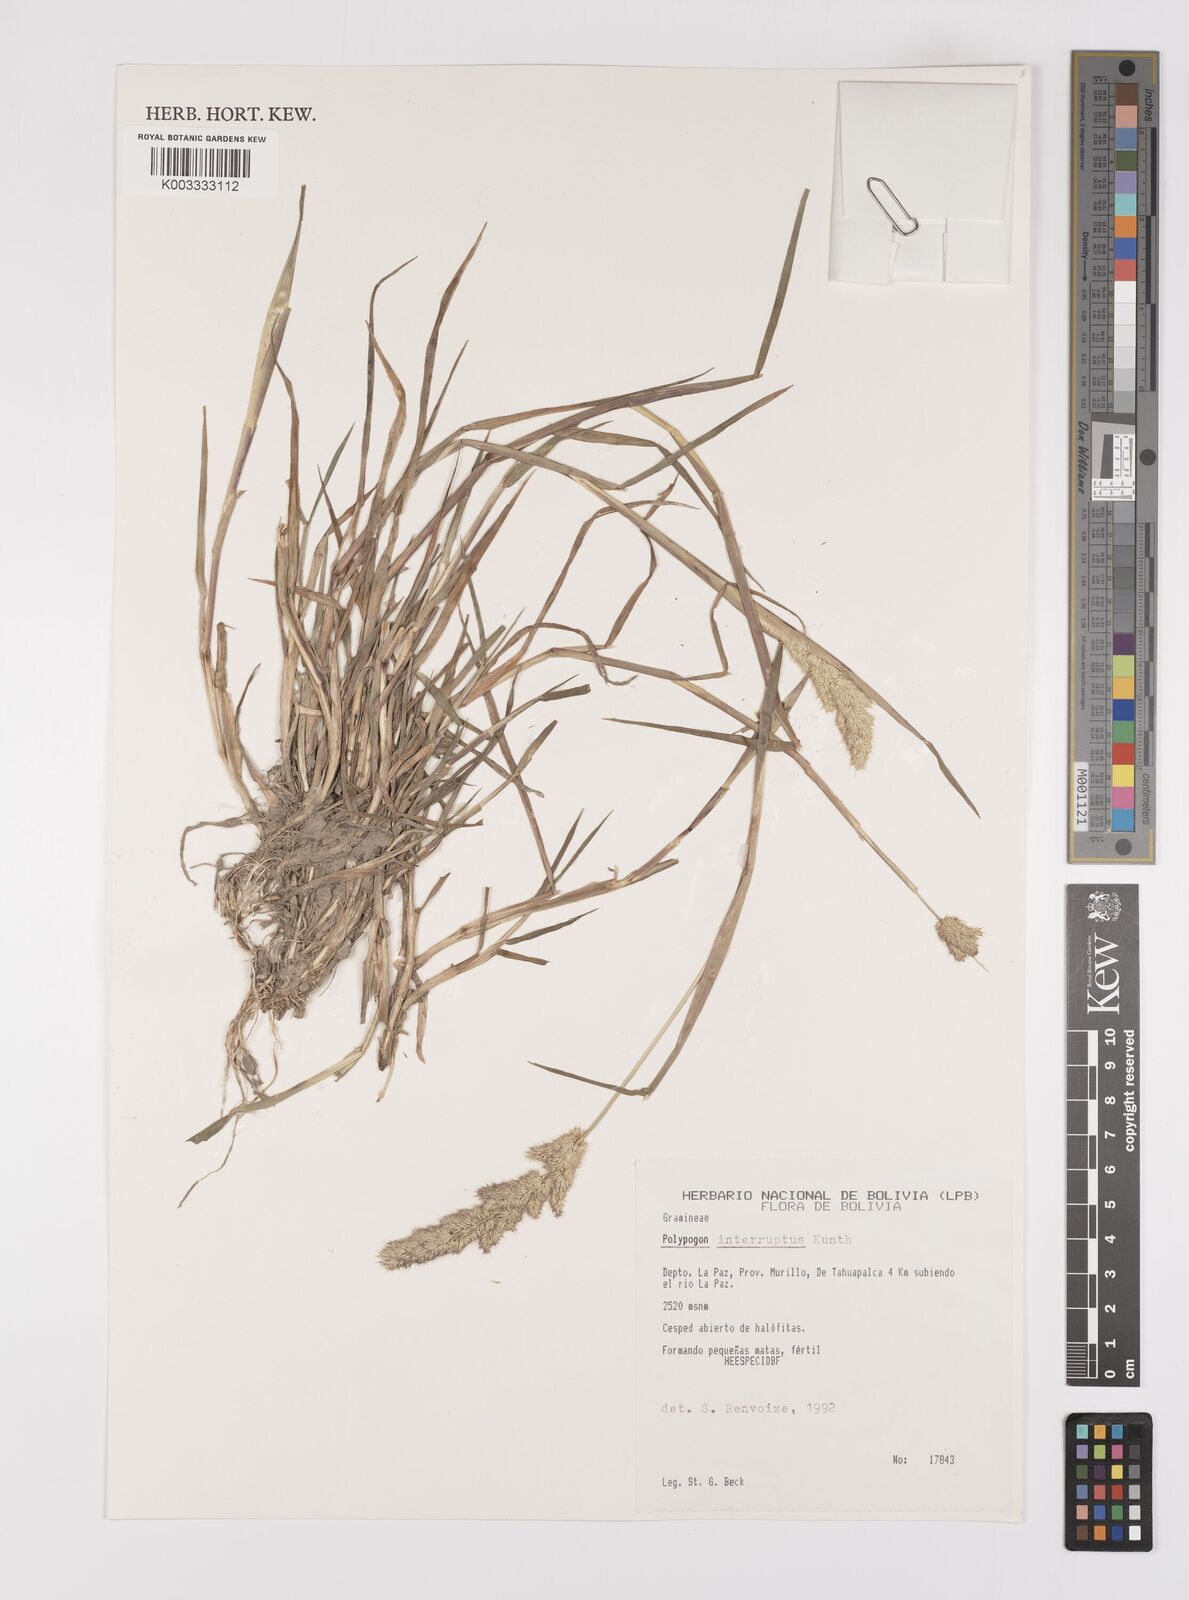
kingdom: Plantae
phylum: Tracheophyta
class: Liliopsida
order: Poales
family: Poaceae
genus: Polypogon
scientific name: Polypogon interruptus
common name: Ditch polypogon
